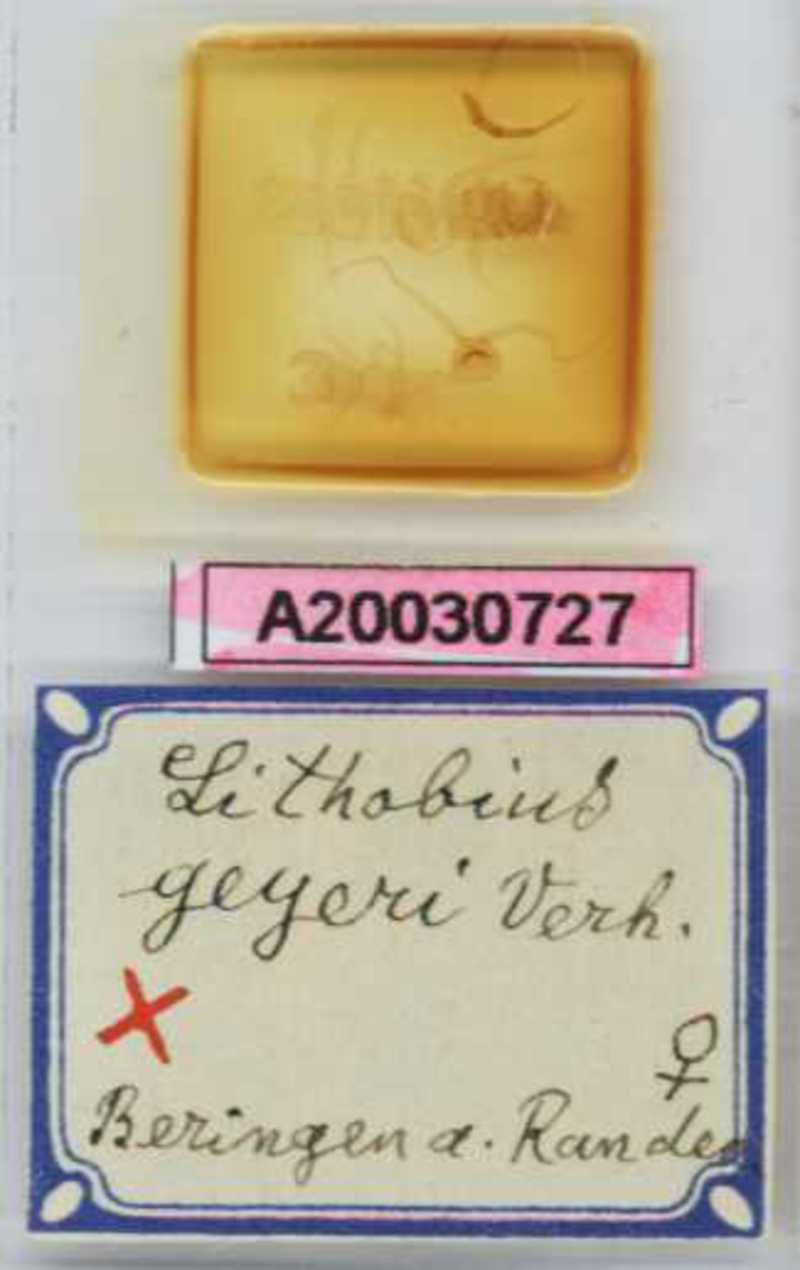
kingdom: Animalia
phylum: Arthropoda
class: Chilopoda
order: Lithobiomorpha
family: Lithobiidae
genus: Lithobius
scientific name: Lithobius mutabilis
